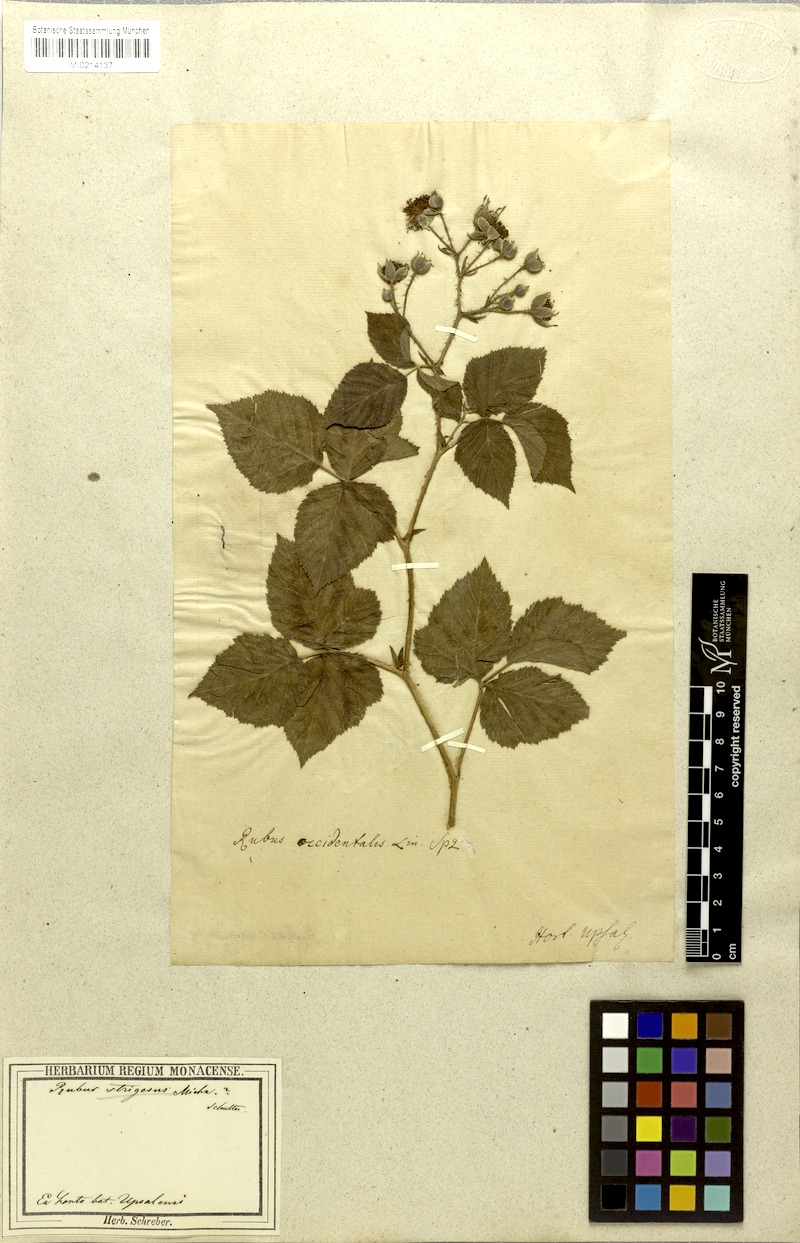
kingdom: Plantae
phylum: Tracheophyta
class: Magnoliopsida
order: Rosales
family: Rosaceae
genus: Rubus
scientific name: Rubus idaeus
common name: Raspberry
